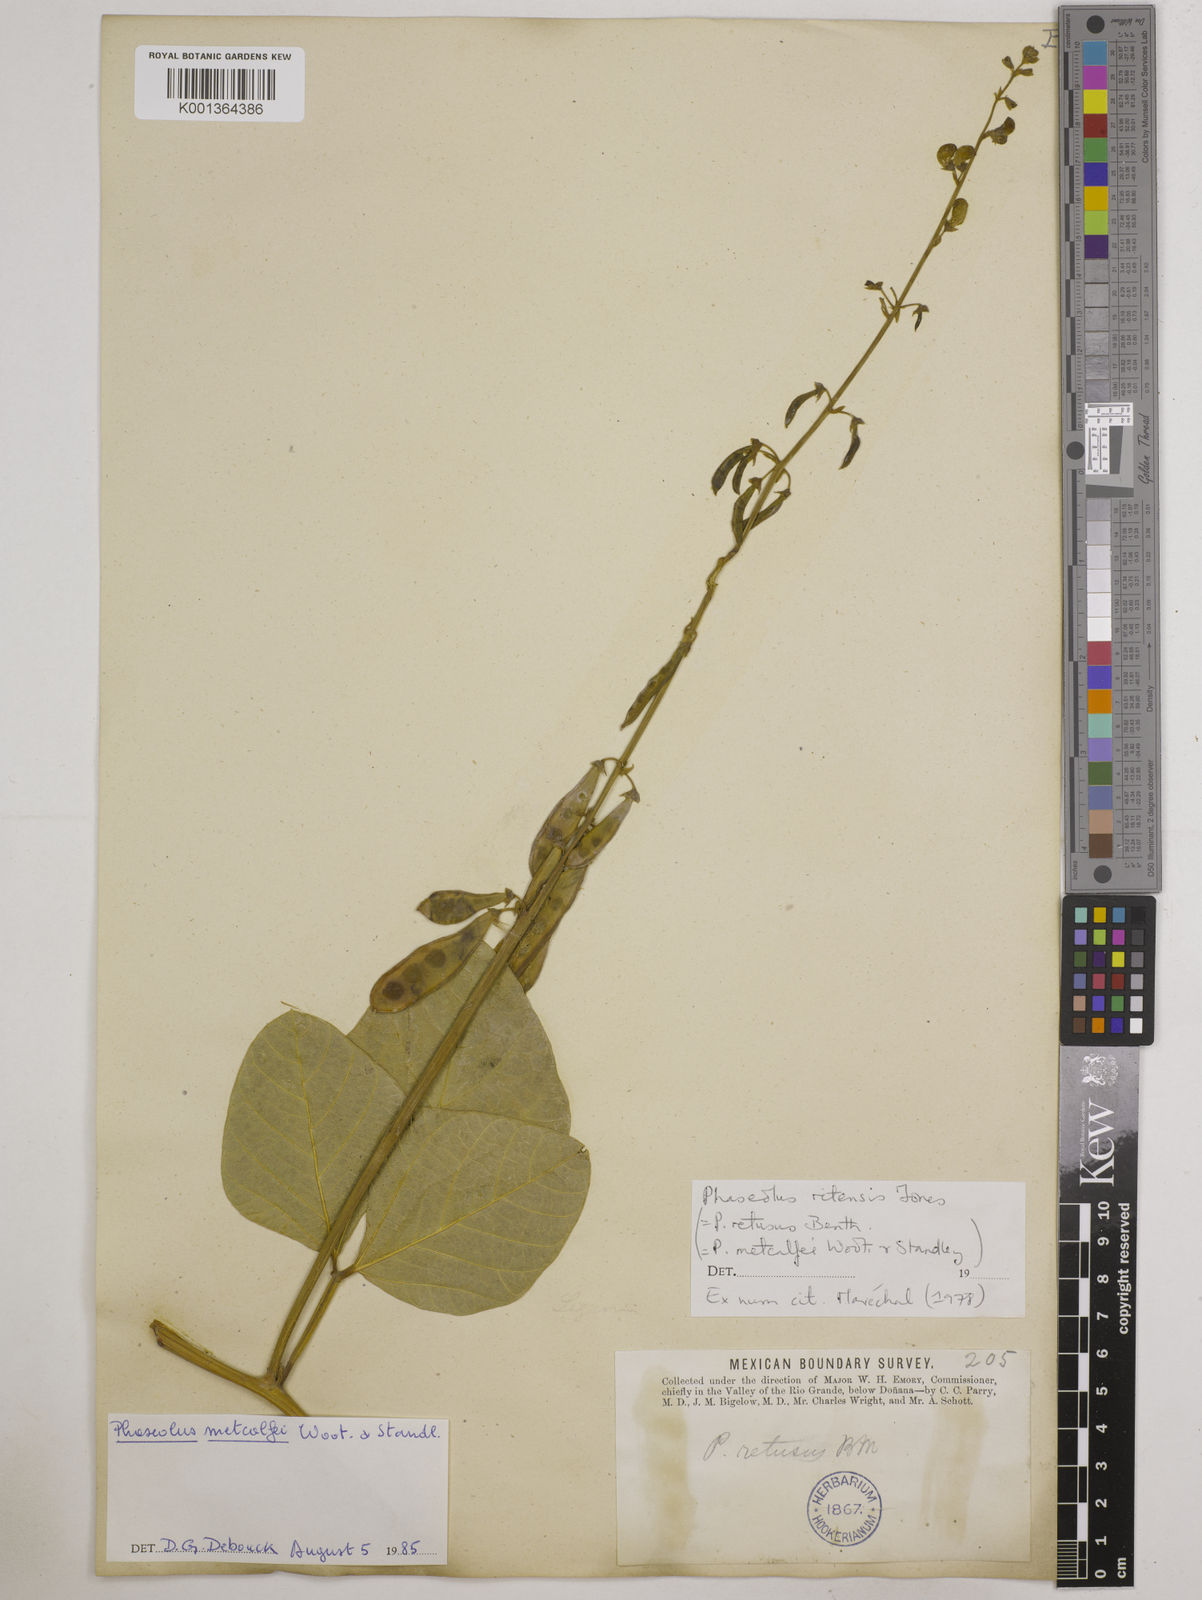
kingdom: Plantae
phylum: Tracheophyta
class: Magnoliopsida
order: Fabales
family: Fabaceae
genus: Phaseolus
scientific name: Phaseolus maculatus
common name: Metcalfe bean
